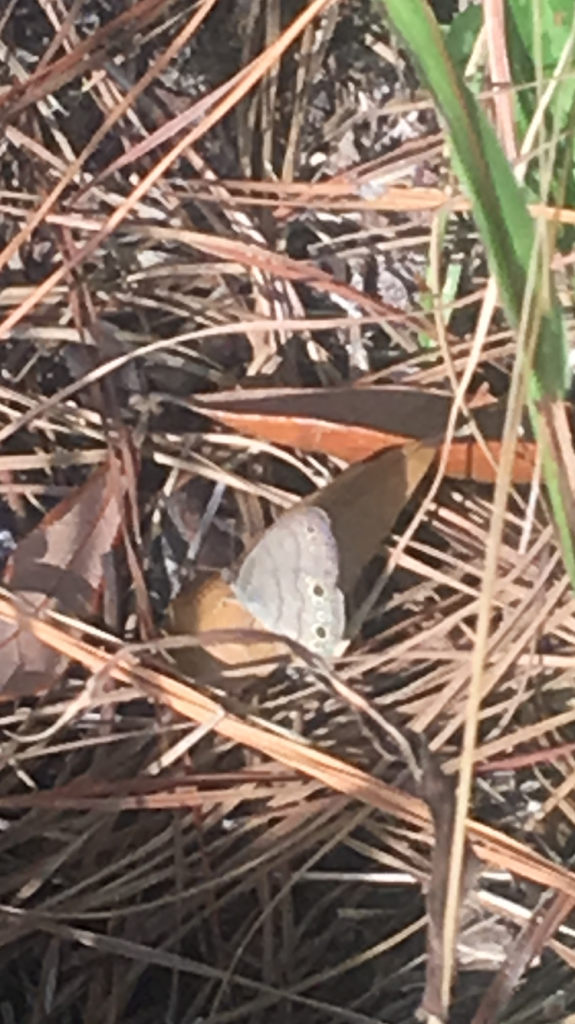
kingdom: Animalia
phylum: Arthropoda
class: Insecta
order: Lepidoptera
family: Nymphalidae
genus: Hermeuptychia
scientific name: Hermeuptychia hermes
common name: Carolina Satyr
